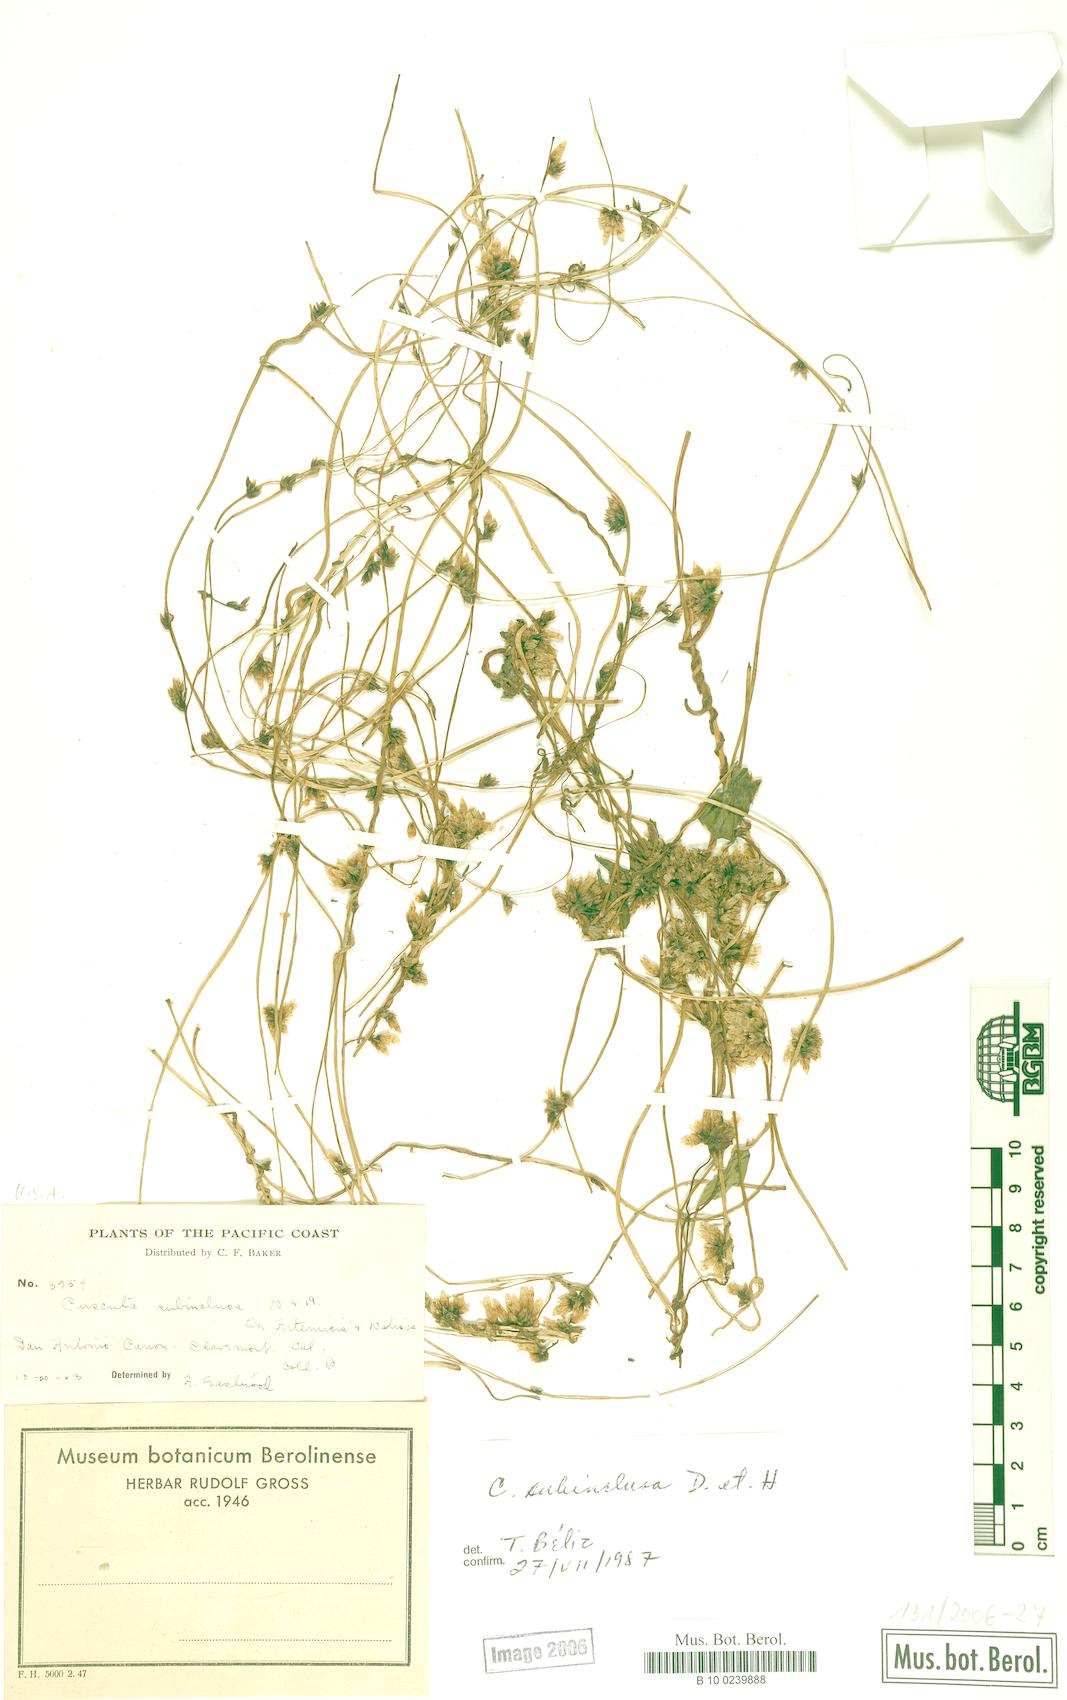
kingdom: Plantae
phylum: Tracheophyta
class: Magnoliopsida
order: Solanales
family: Convolvulaceae
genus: Cuscuta
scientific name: Cuscuta subinclusa
